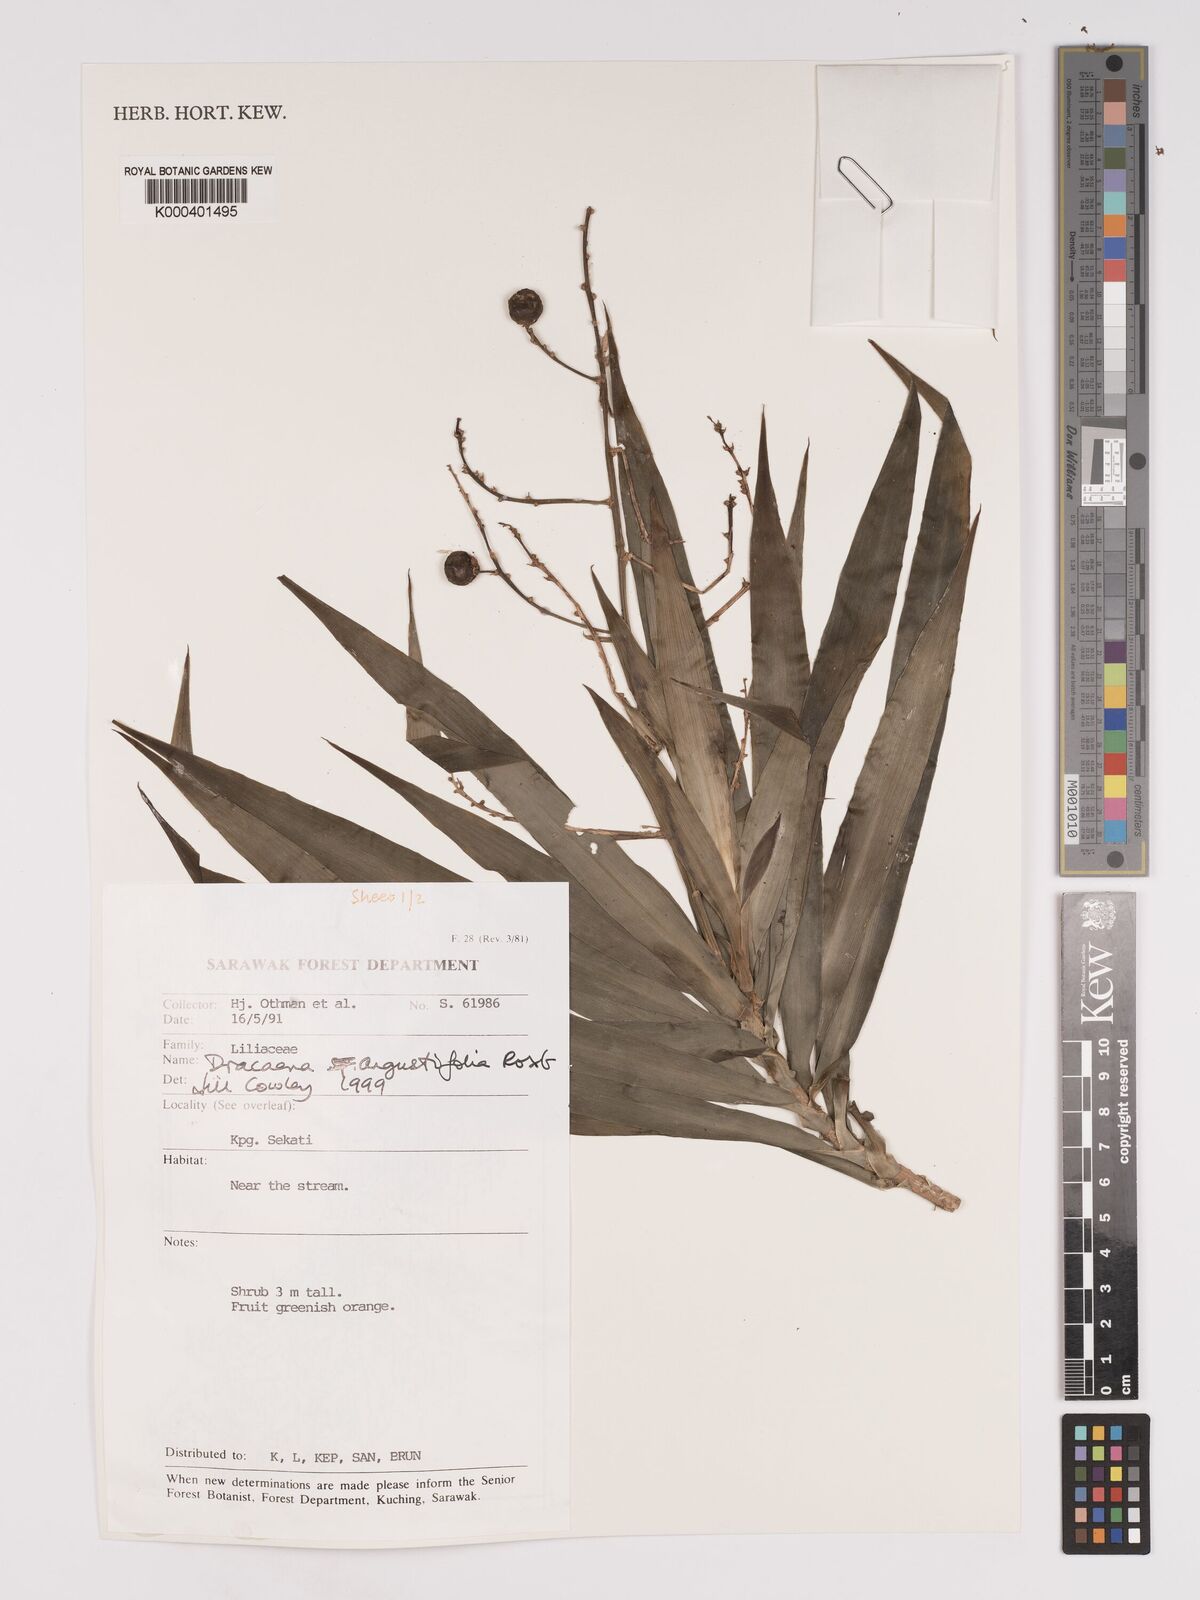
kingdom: Plantae
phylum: Tracheophyta
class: Liliopsida
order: Asparagales
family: Asparagaceae
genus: Dracaena
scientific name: Dracaena angustifolia
